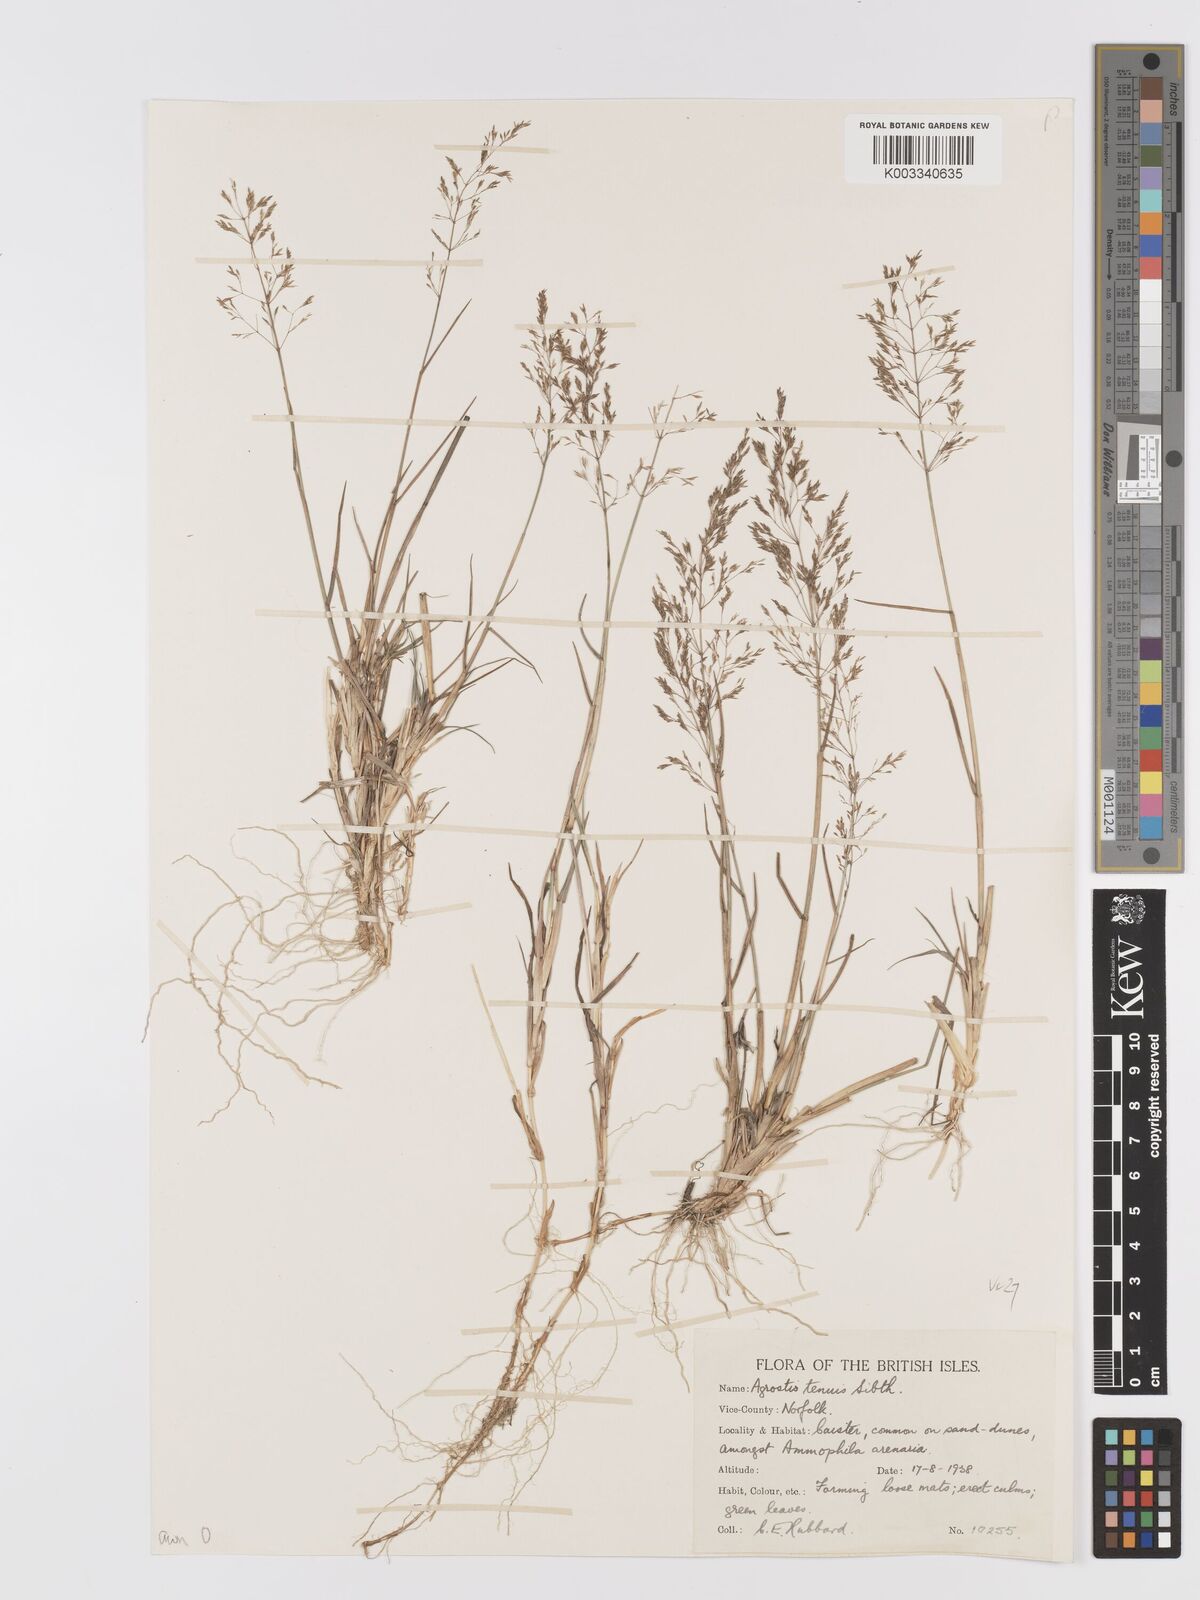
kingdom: Plantae
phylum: Tracheophyta
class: Liliopsida
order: Poales
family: Poaceae
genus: Agrostis
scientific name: Agrostis capillaris
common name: Colonial bentgrass
